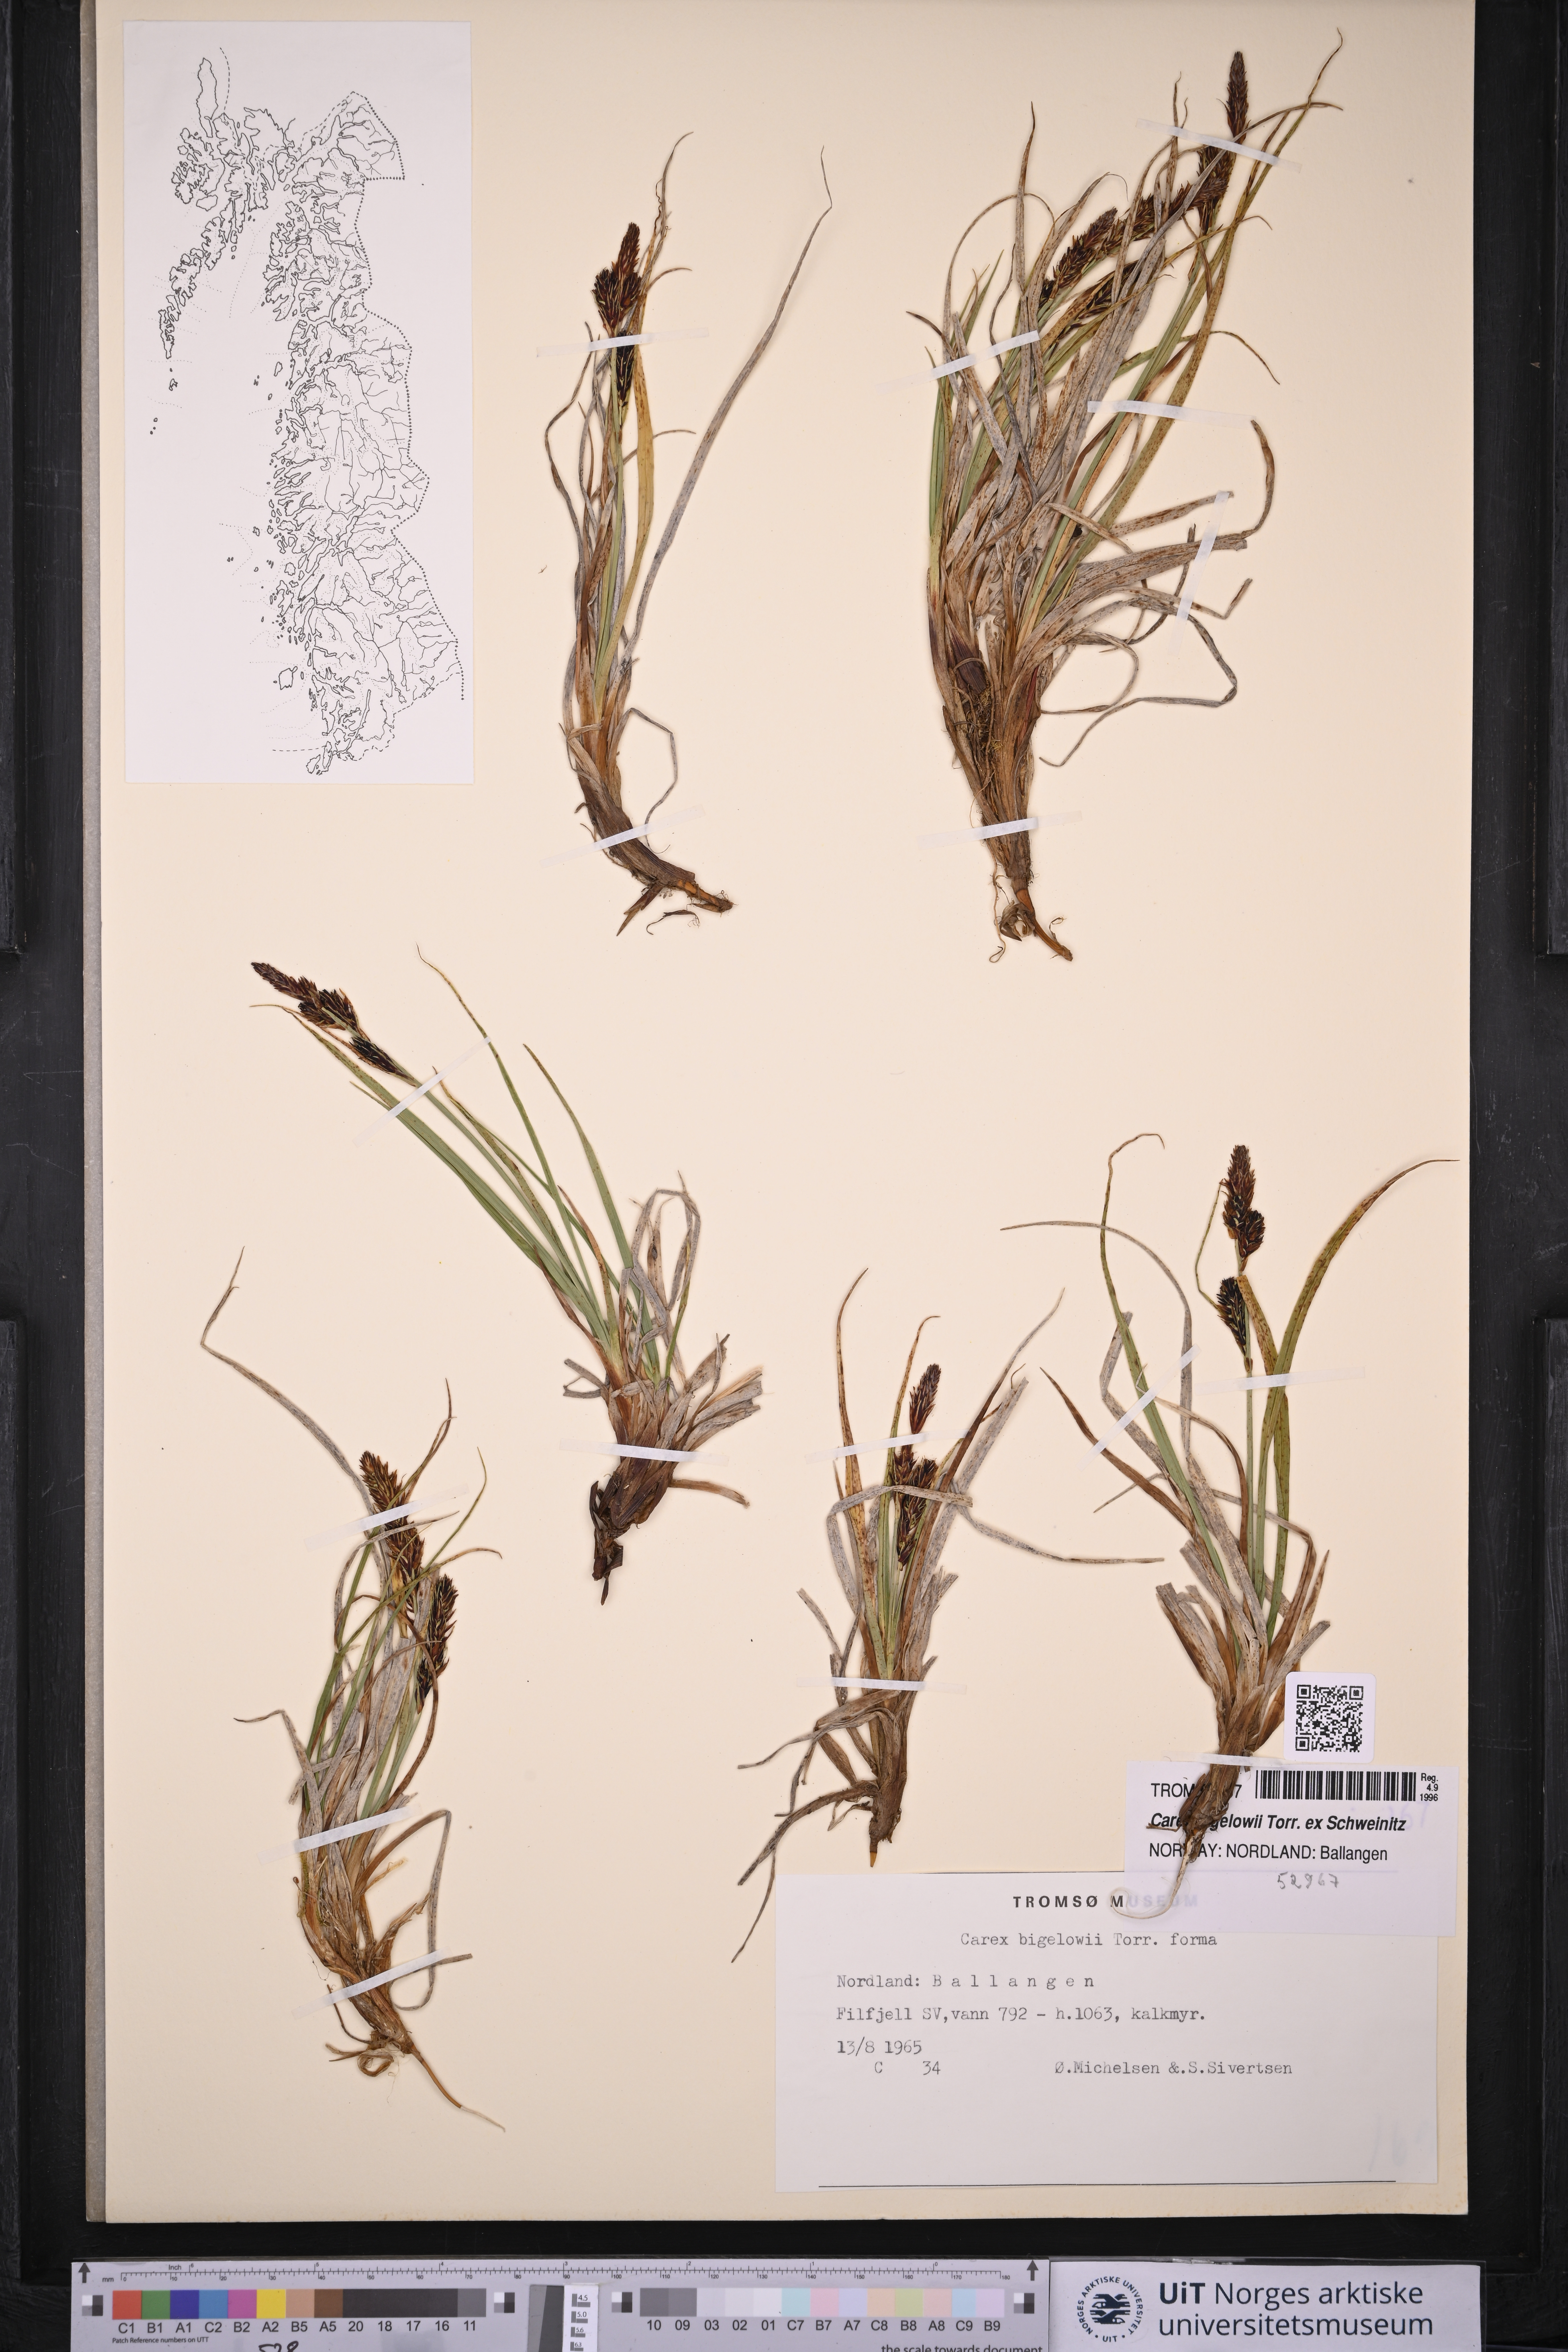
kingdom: Plantae
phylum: Tracheophyta
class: Liliopsida
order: Poales
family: Cyperaceae
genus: Carex
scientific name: Carex bigelowii
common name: Stiff sedge
